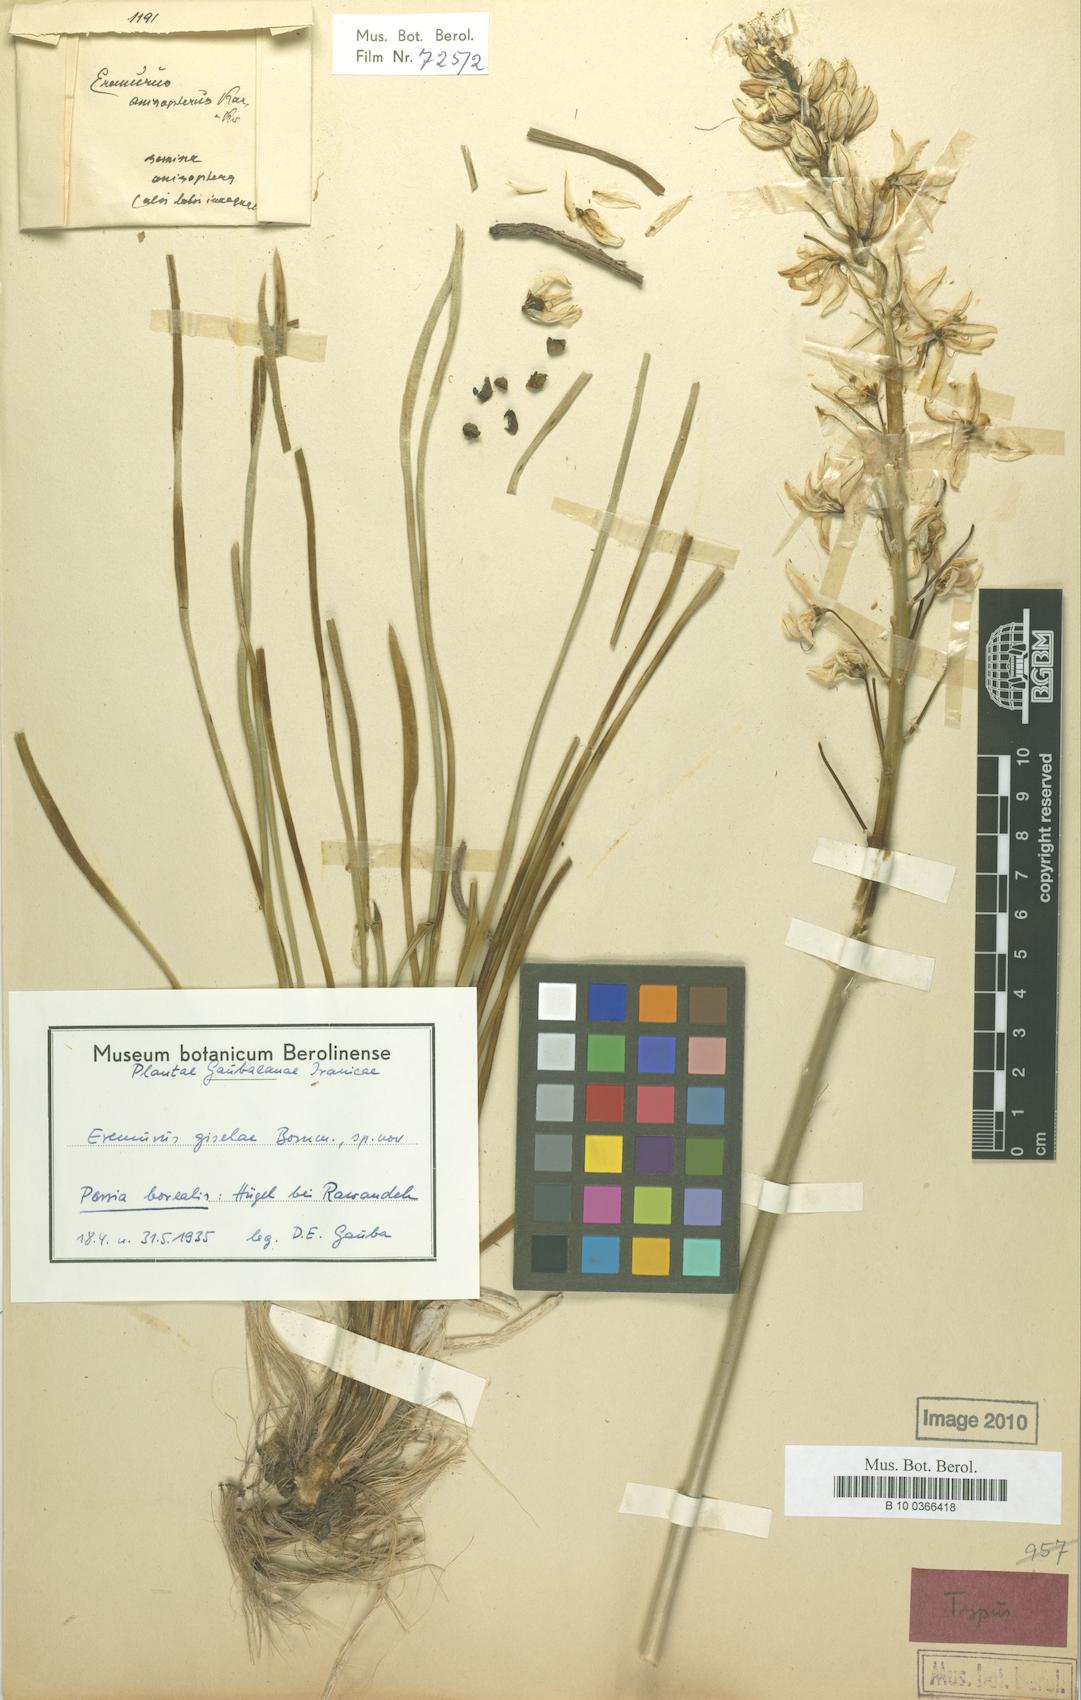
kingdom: Plantae
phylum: Tracheophyta
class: Liliopsida
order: Asparagales
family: Asphodelaceae
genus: Eremurus
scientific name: Eremurus kopet-daghensis
